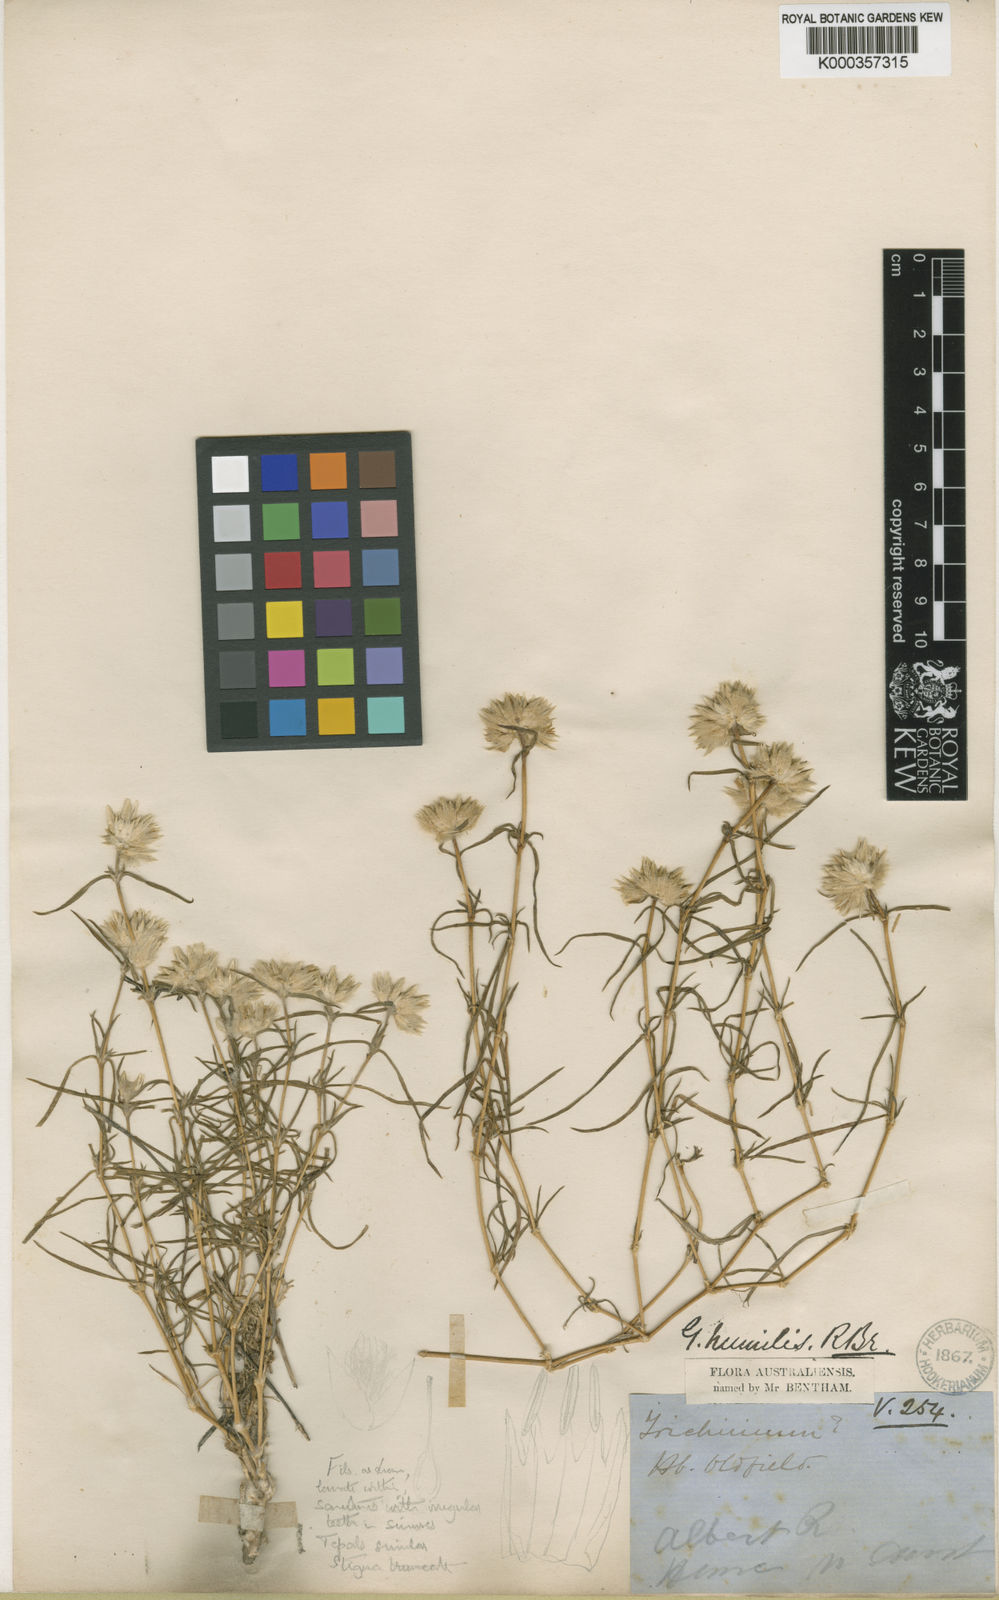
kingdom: Plantae
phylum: Tracheophyta
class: Magnoliopsida
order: Caryophyllales
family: Amaranthaceae
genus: Gomphrena
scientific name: Gomphrena humilis
